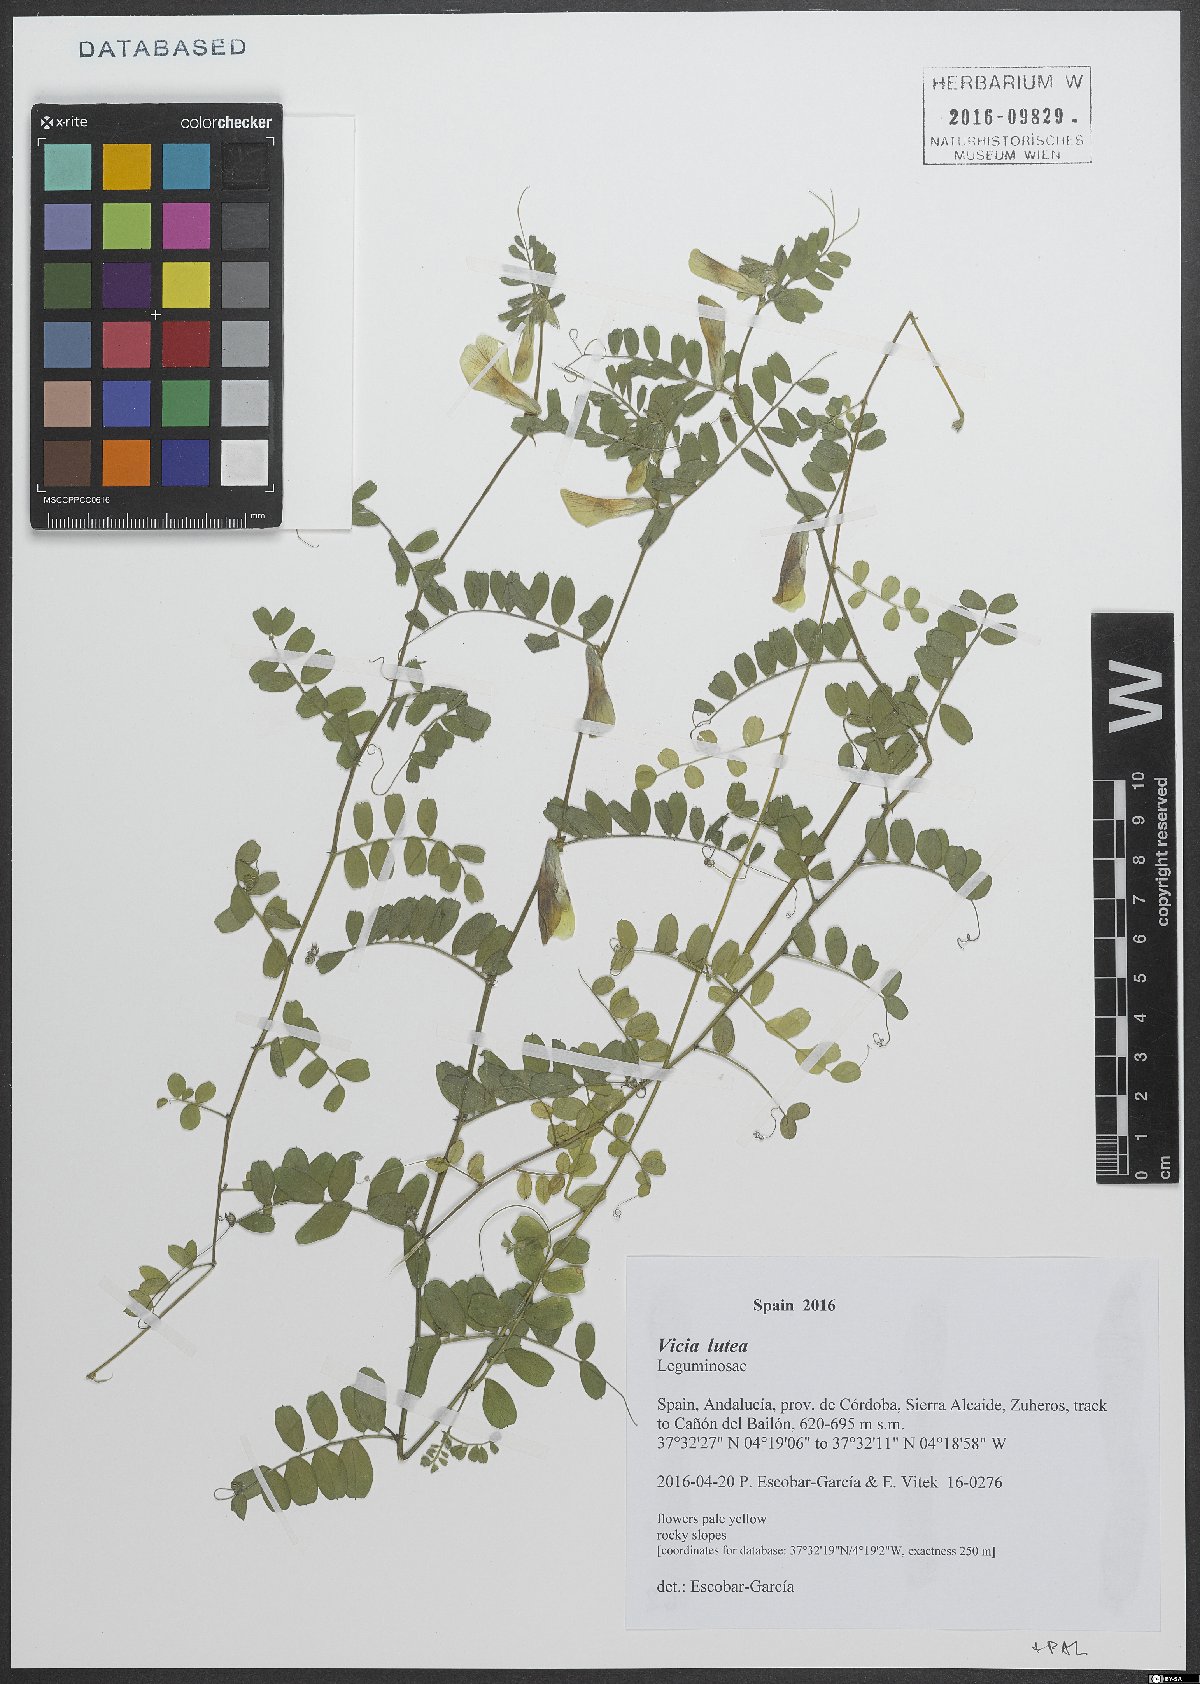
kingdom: Plantae
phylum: Tracheophyta
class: Magnoliopsida
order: Fabales
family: Fabaceae
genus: Vicia
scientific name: Vicia lutea
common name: Smooth yellow vetch
